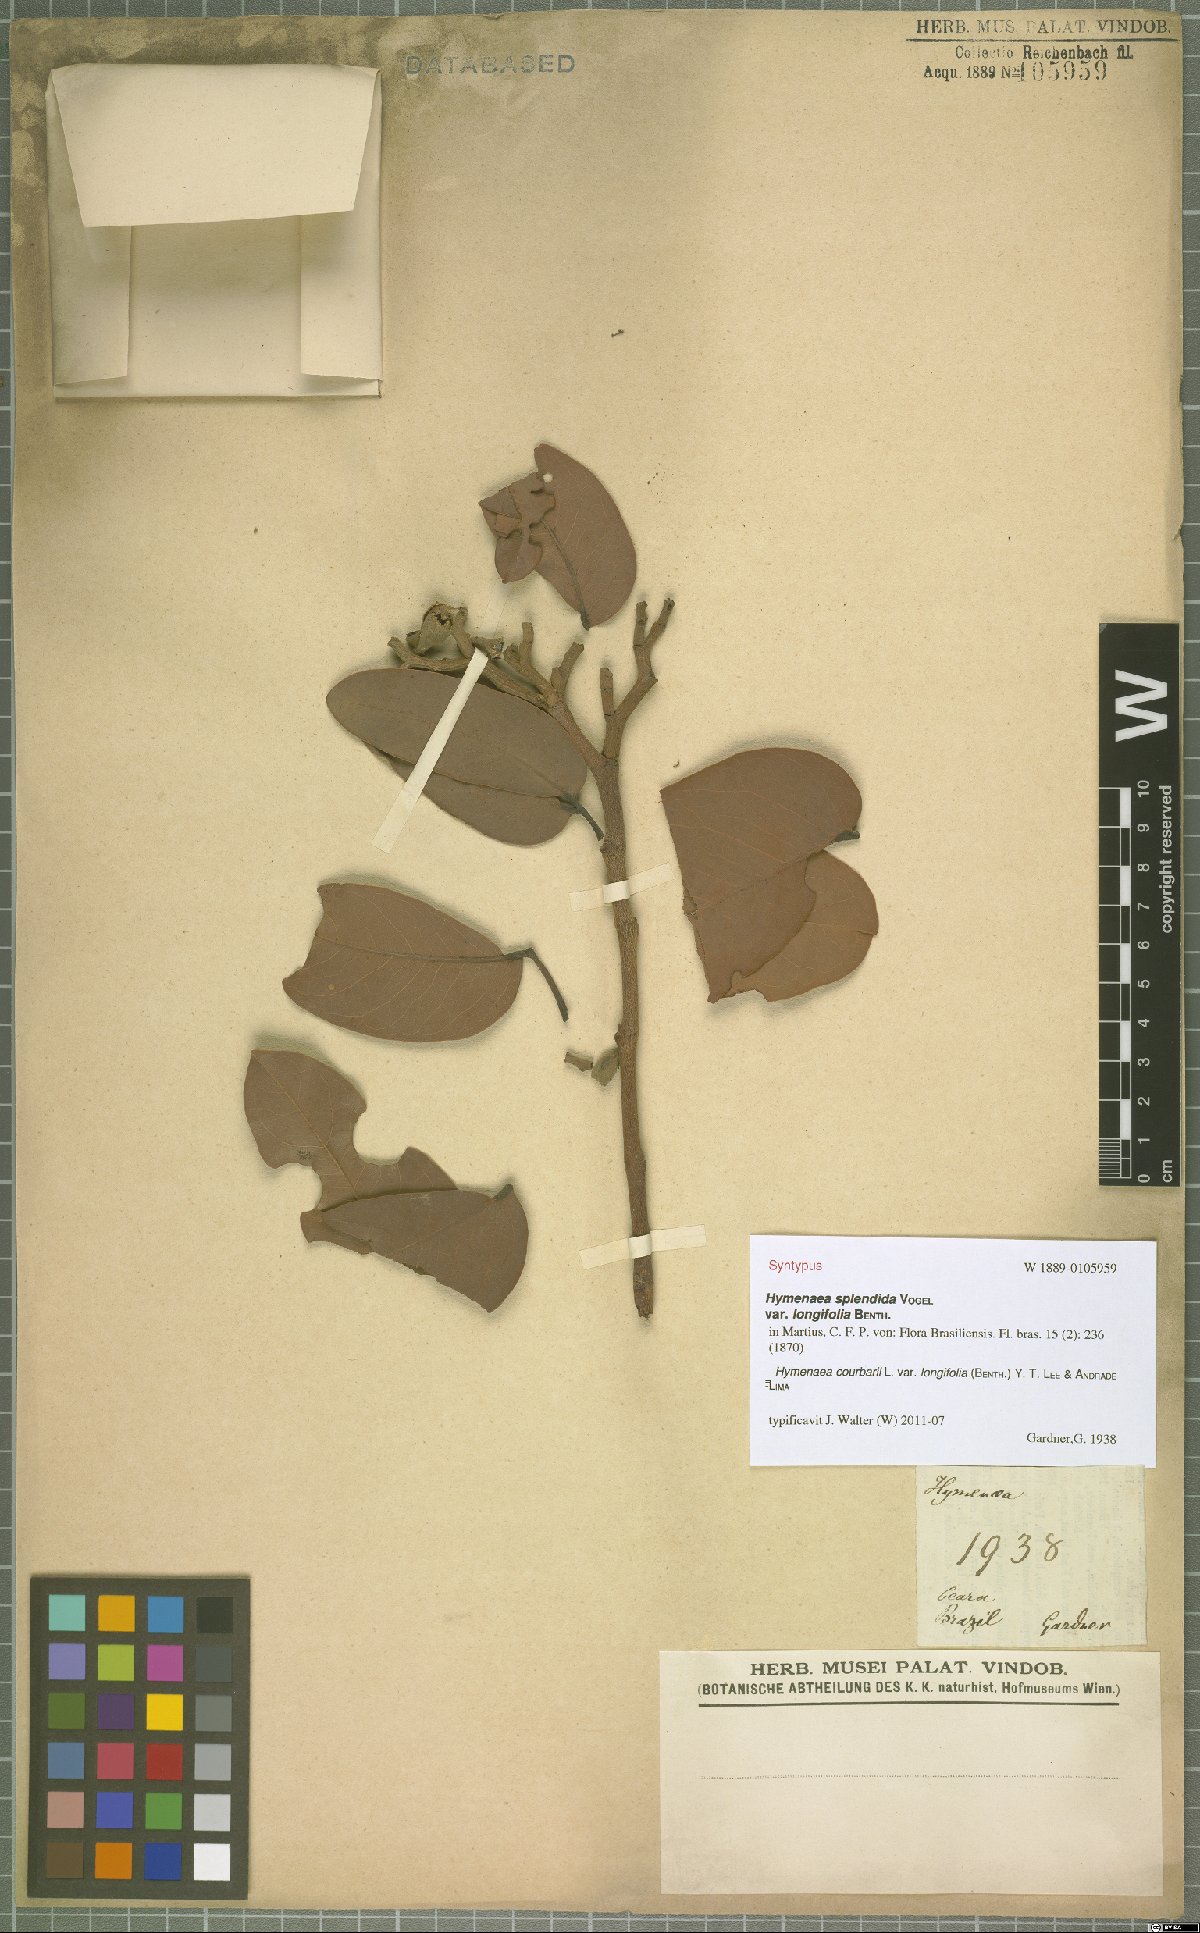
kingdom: Plantae
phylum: Tracheophyta
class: Magnoliopsida
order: Fabales
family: Fabaceae
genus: Hymenaea
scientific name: Hymenaea longifolia
